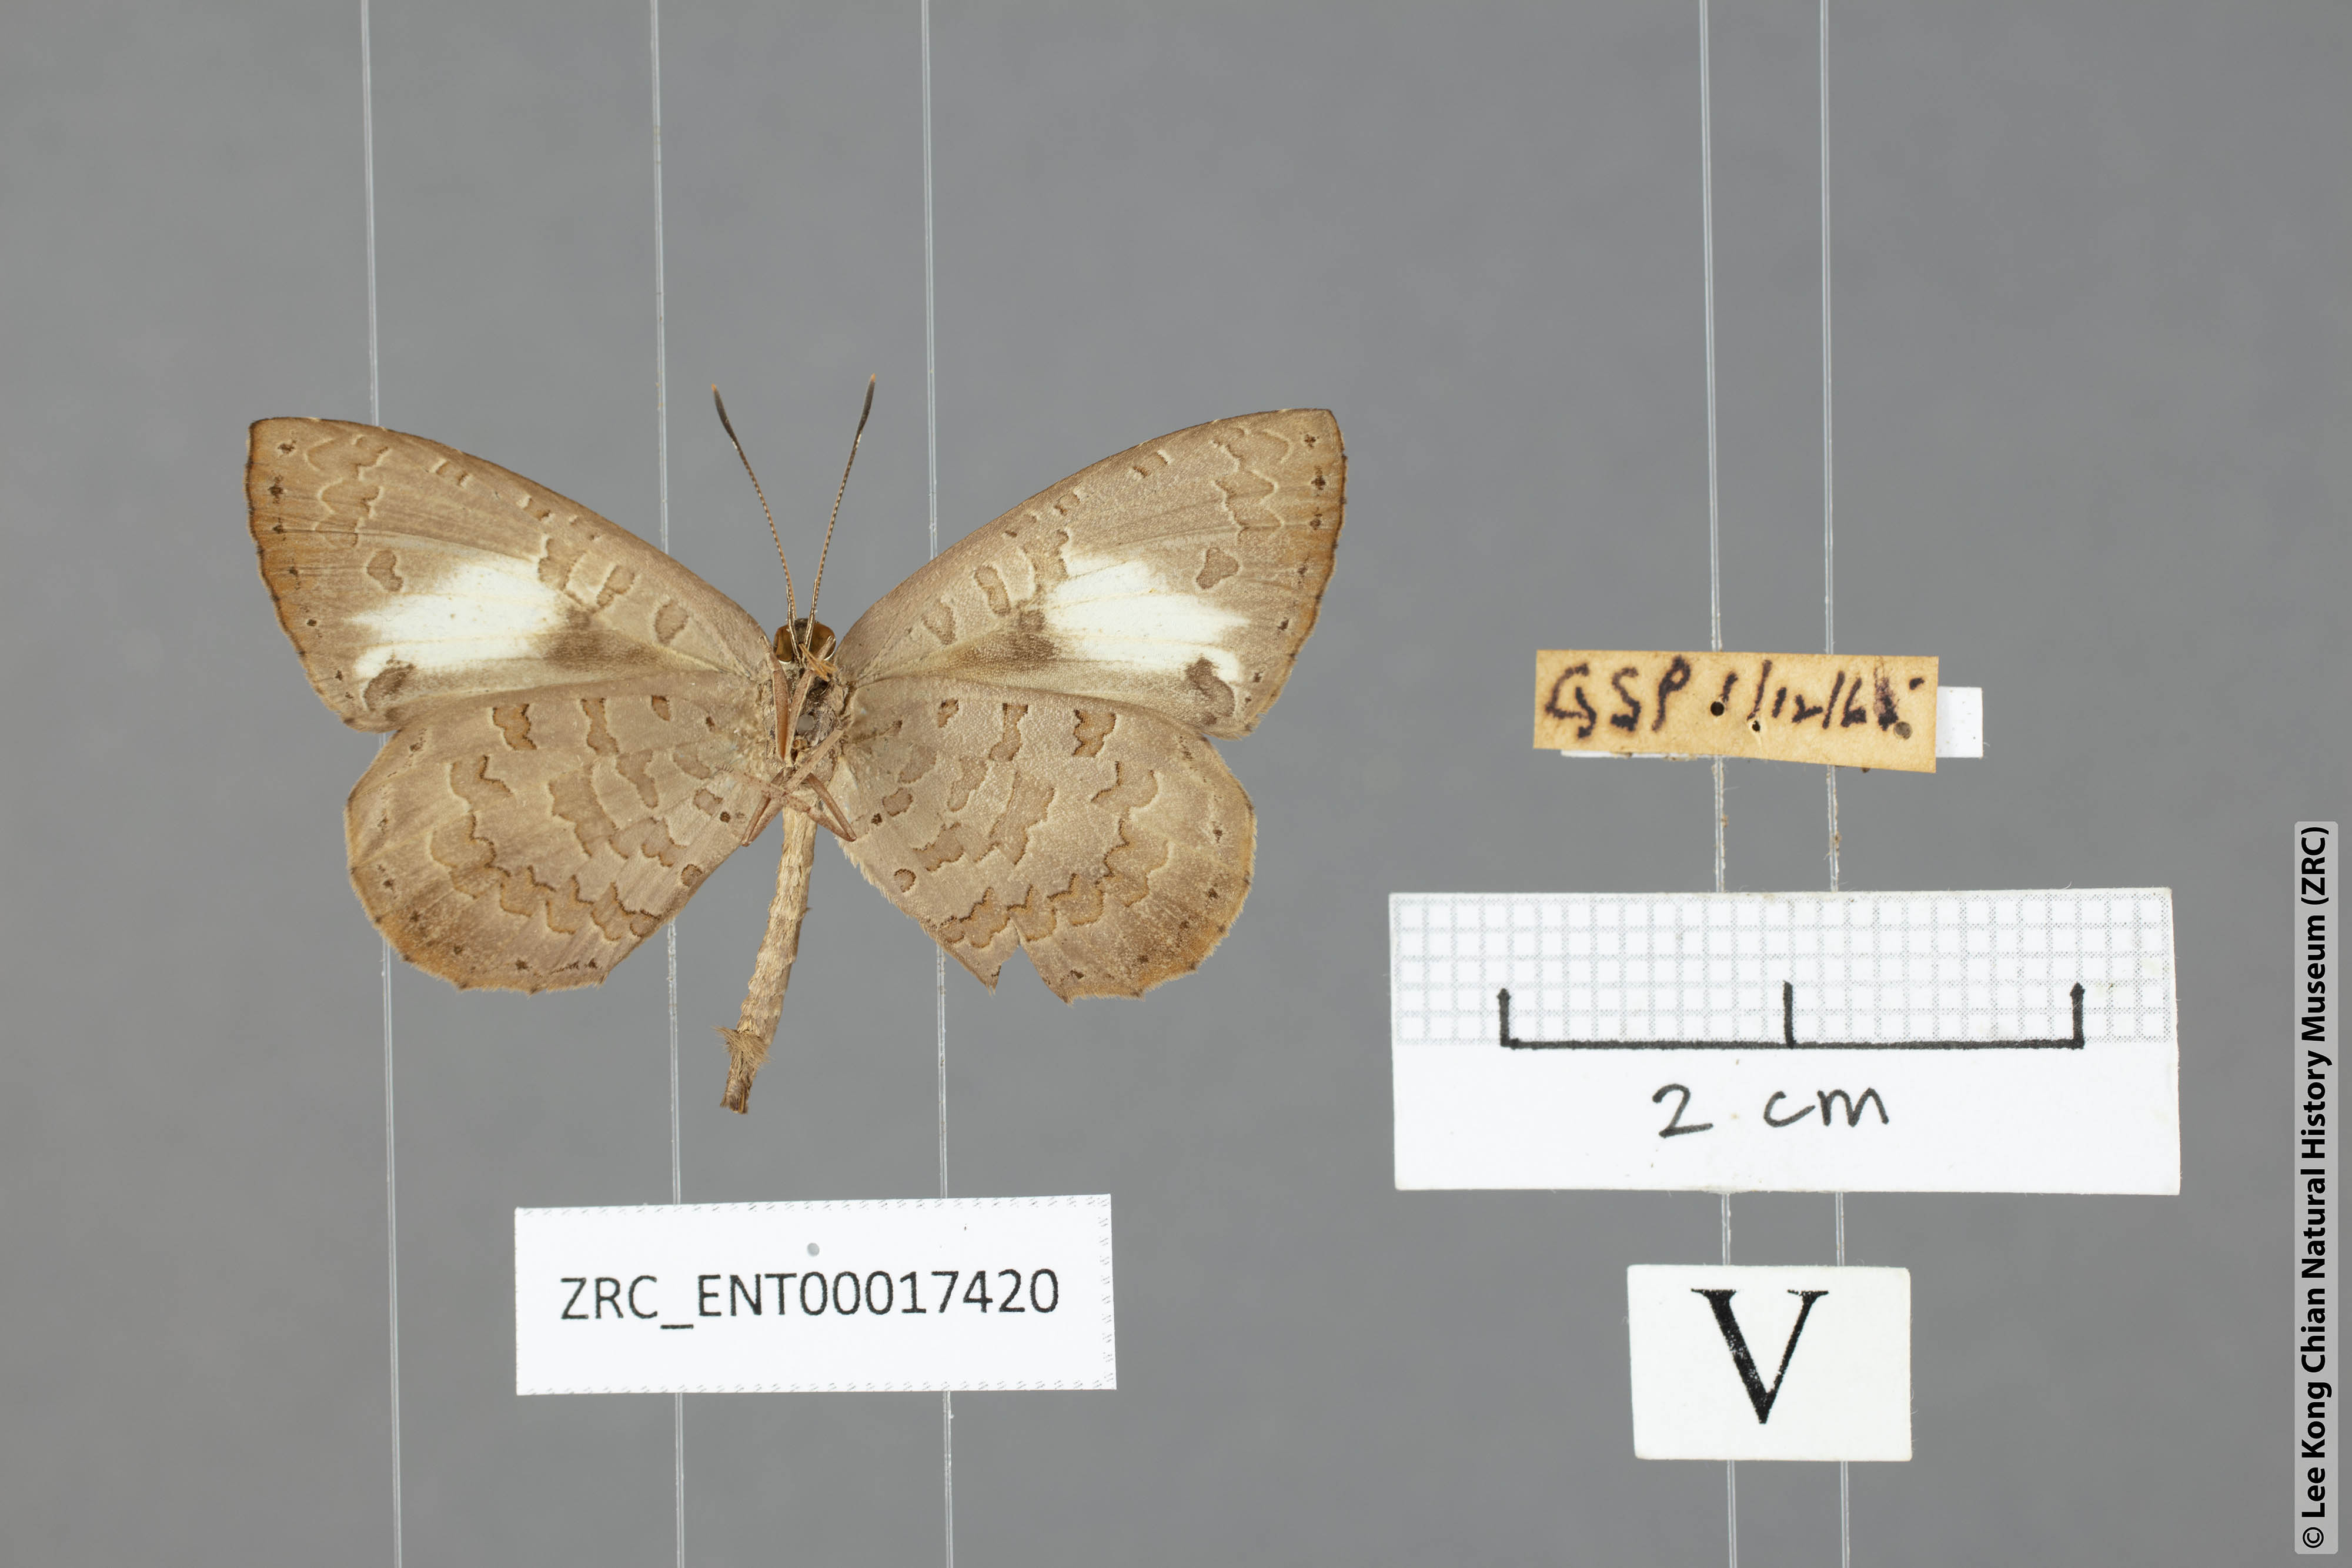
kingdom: Animalia
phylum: Arthropoda
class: Insecta
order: Lepidoptera
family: Lycaenidae
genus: Miletus
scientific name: Miletus biggsii
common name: Bigg's brownie
